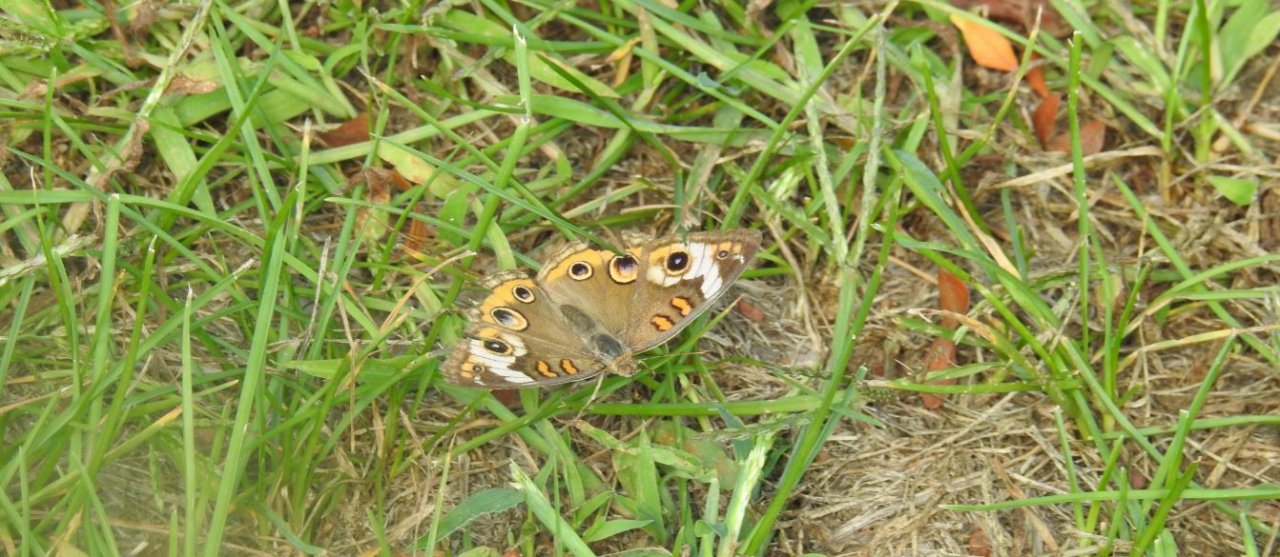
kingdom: Animalia
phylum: Arthropoda
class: Insecta
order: Lepidoptera
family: Nymphalidae
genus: Junonia
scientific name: Junonia coenia
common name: Common Buckeye
